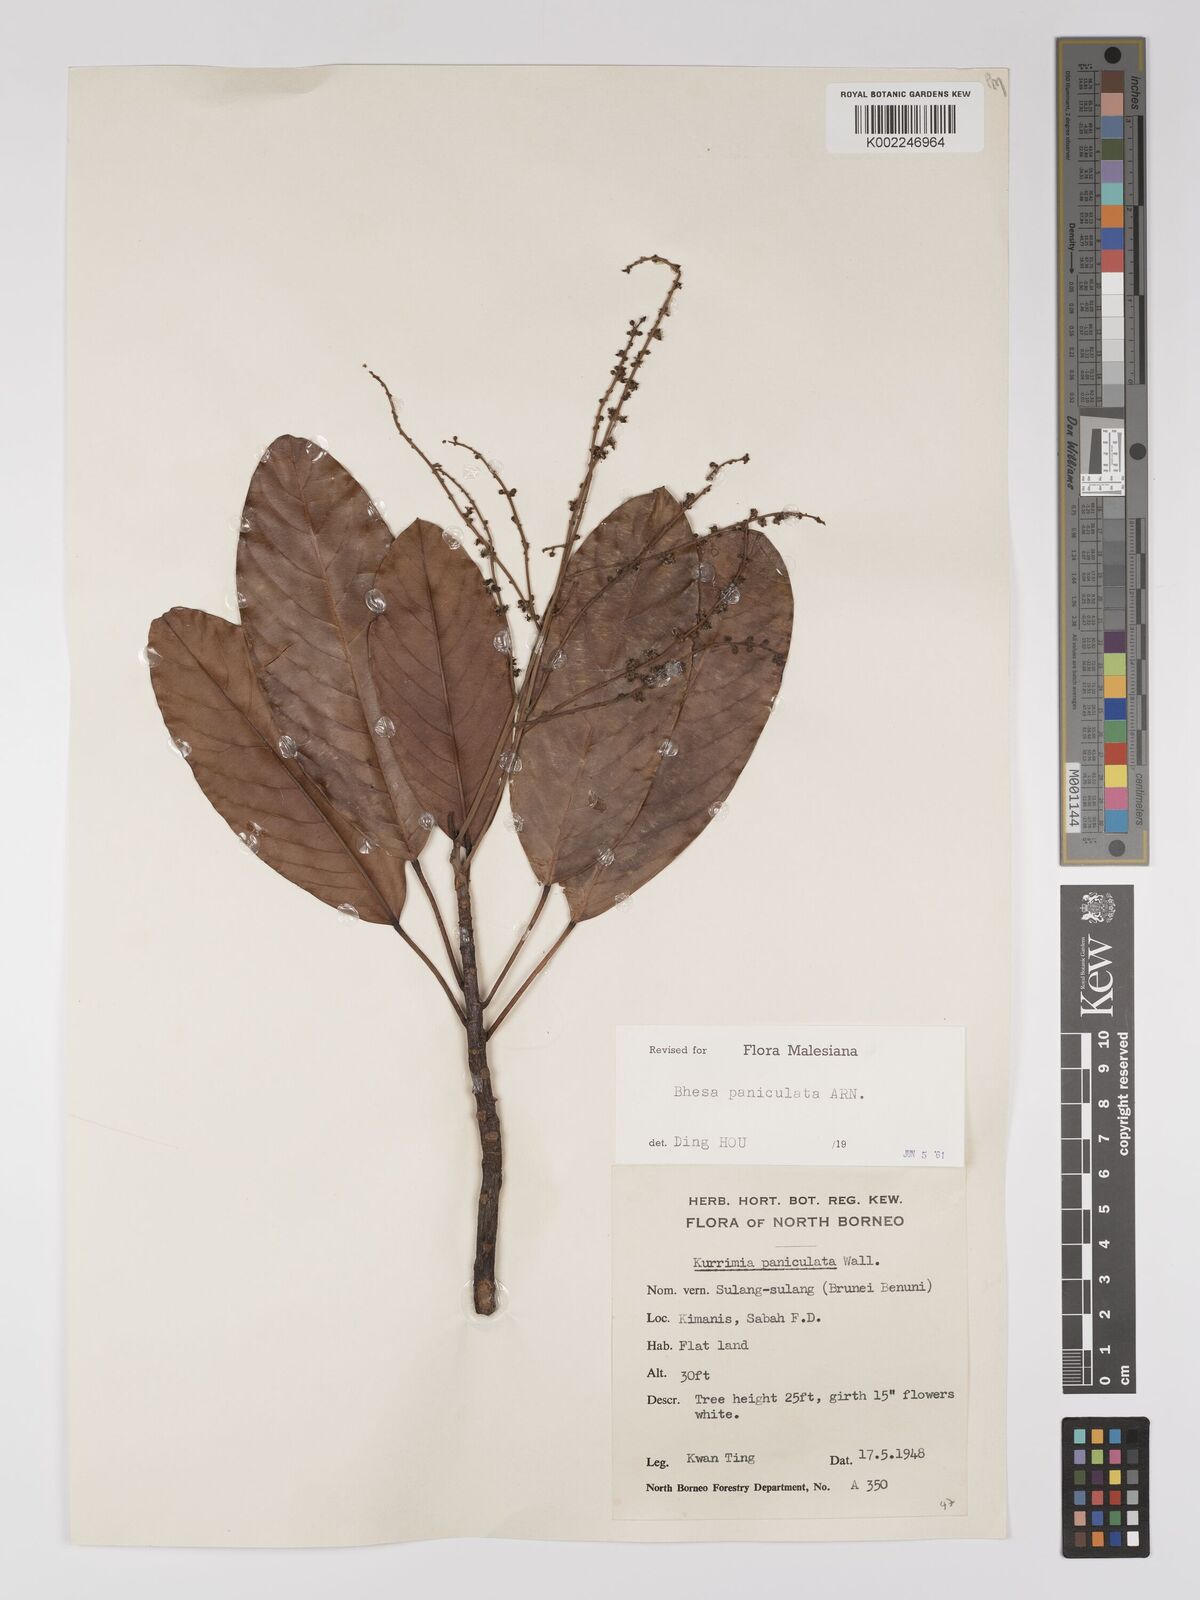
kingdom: Plantae
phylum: Tracheophyta
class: Magnoliopsida
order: Malpighiales
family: Centroplacaceae
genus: Bhesa
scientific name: Bhesa paniculata
